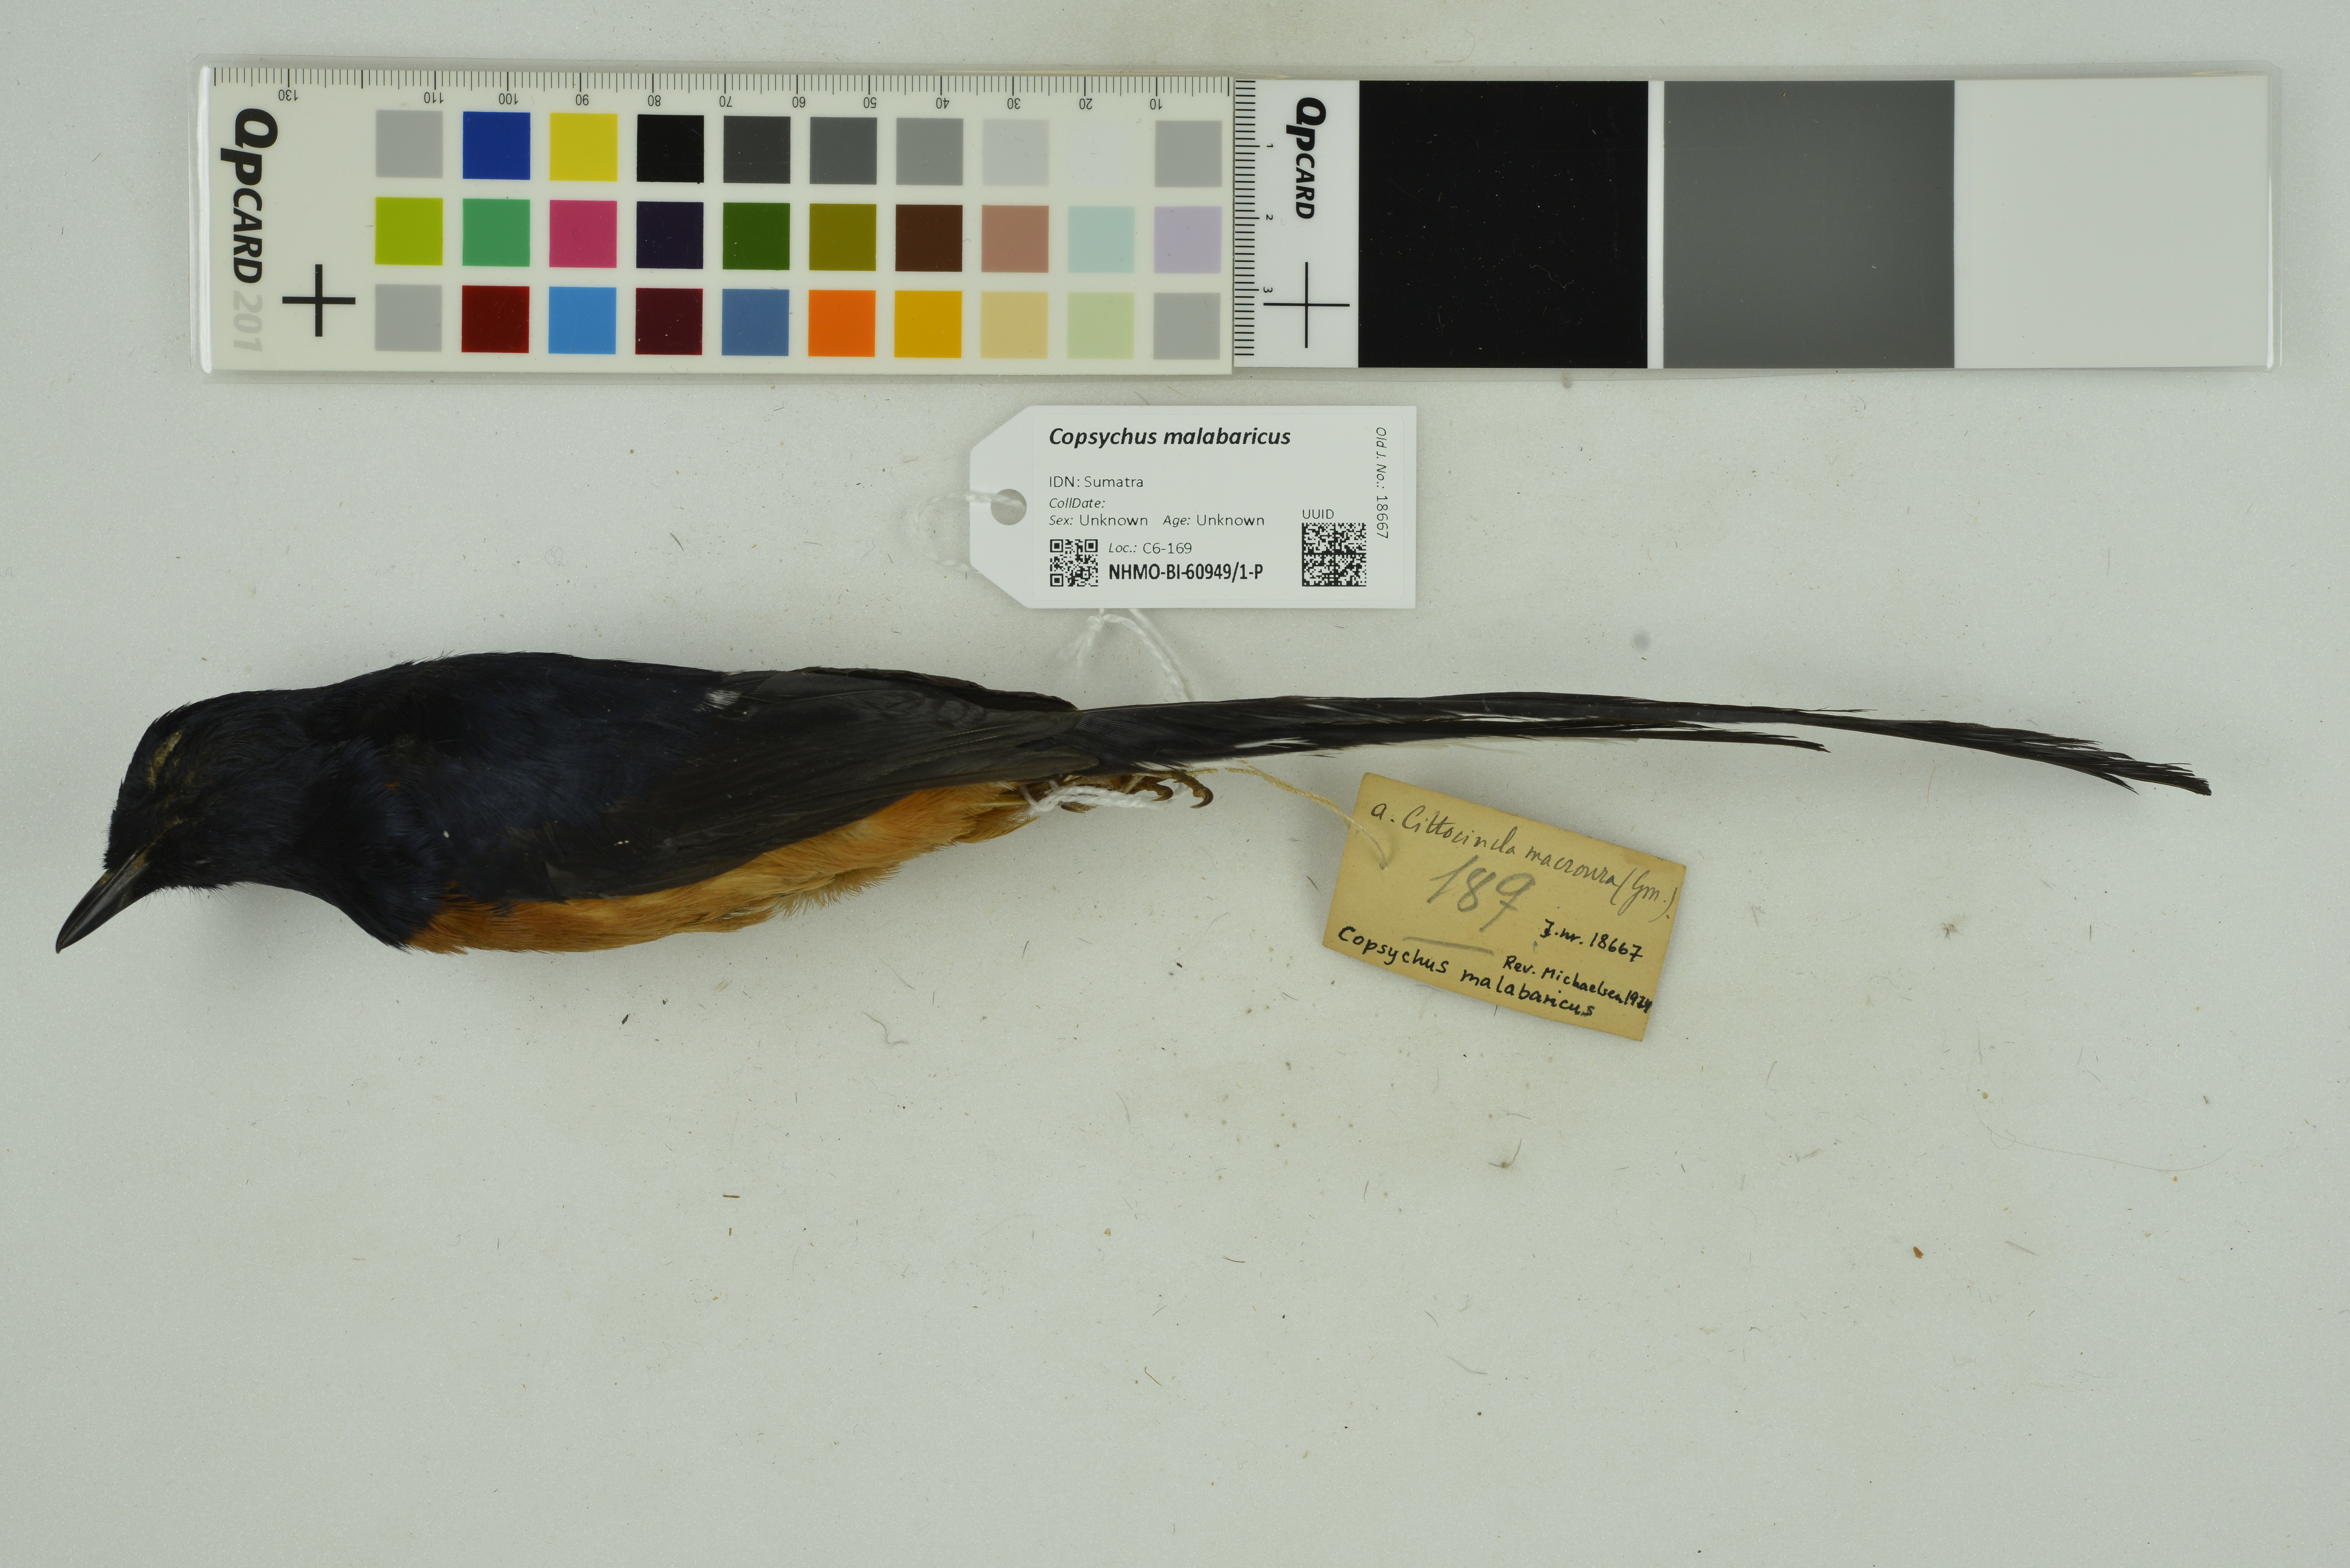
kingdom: Animalia
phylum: Chordata
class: Aves
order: Passeriformes
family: Muscicapidae
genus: Copsychus
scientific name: Copsychus malabaricus
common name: White-rumped shama
